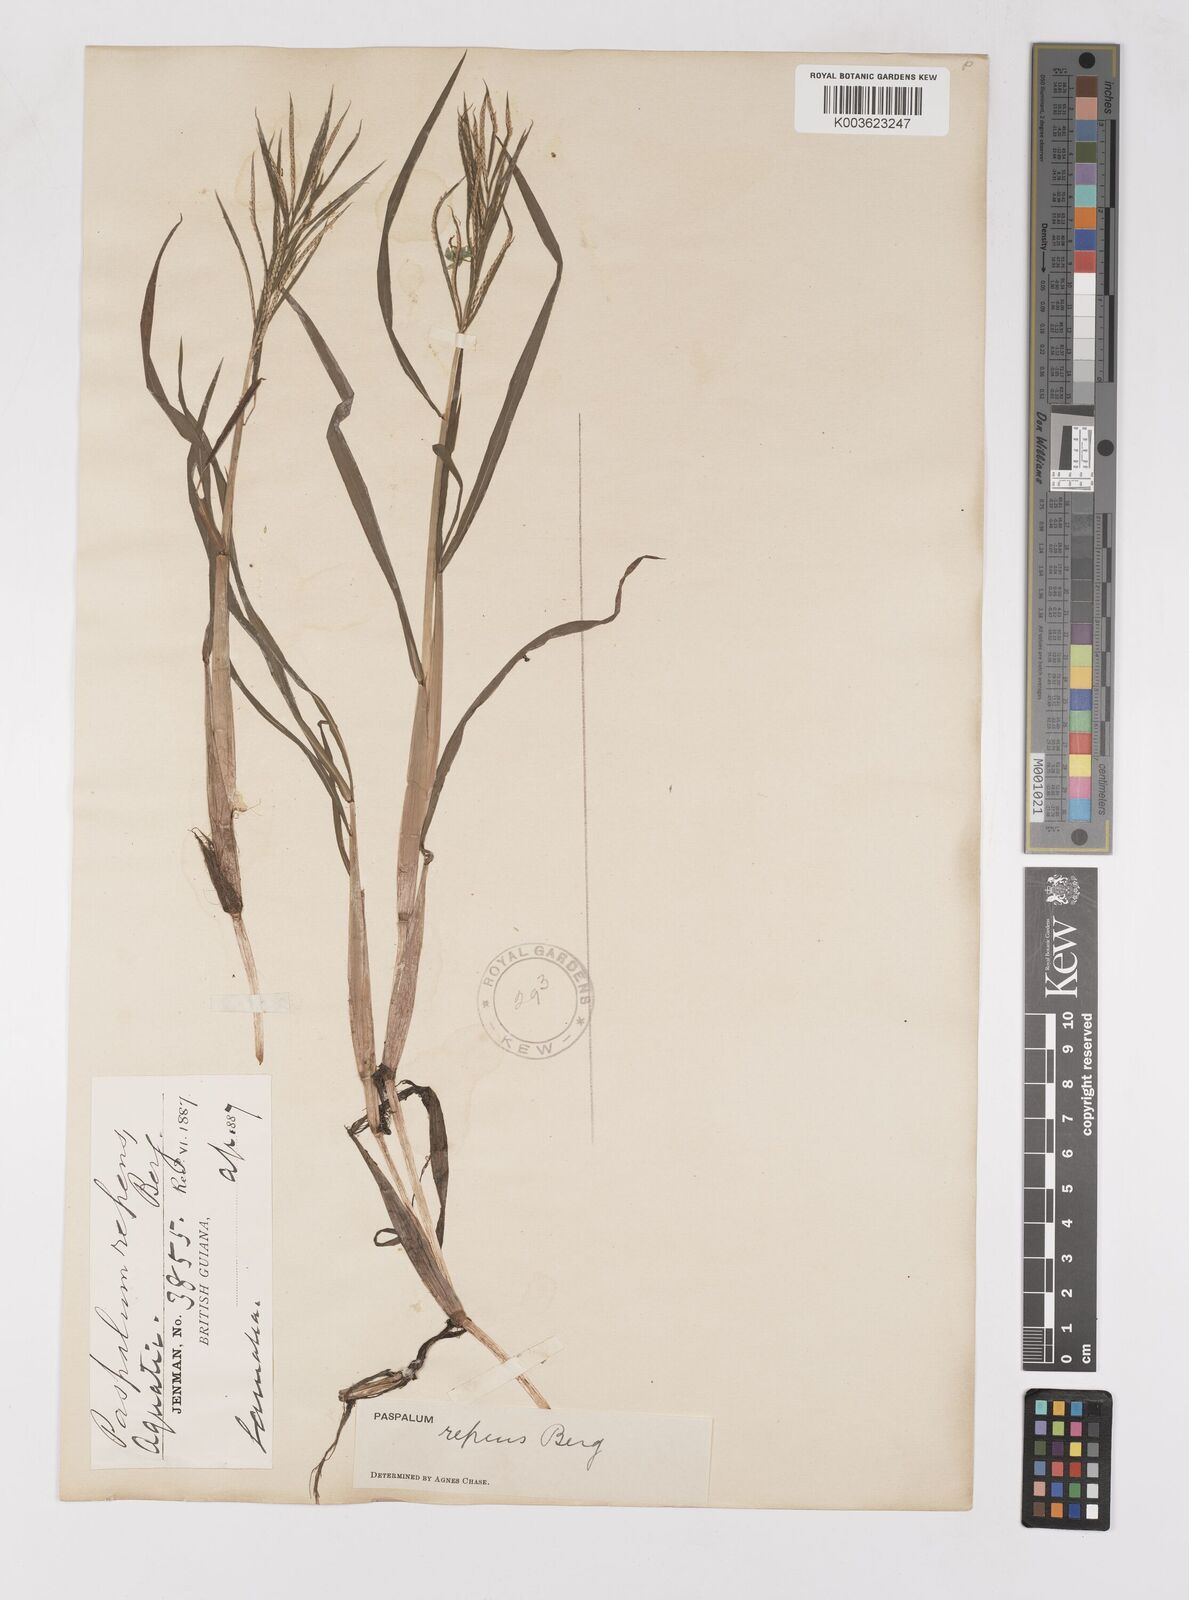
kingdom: Plantae
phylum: Tracheophyta
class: Liliopsida
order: Poales
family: Poaceae
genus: Paspalum
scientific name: Paspalum repens
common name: Water paspalum
